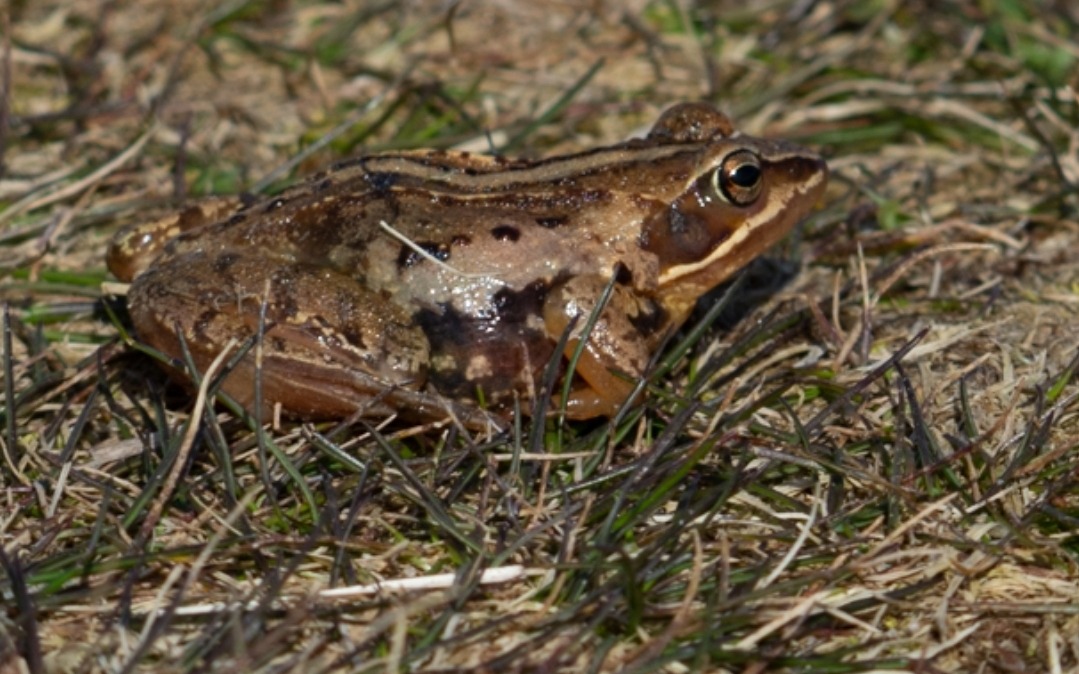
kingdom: Animalia
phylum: Chordata
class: Amphibia
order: Anura
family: Ranidae
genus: Rana
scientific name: Rana arvalis
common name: Spidssnudet frø
